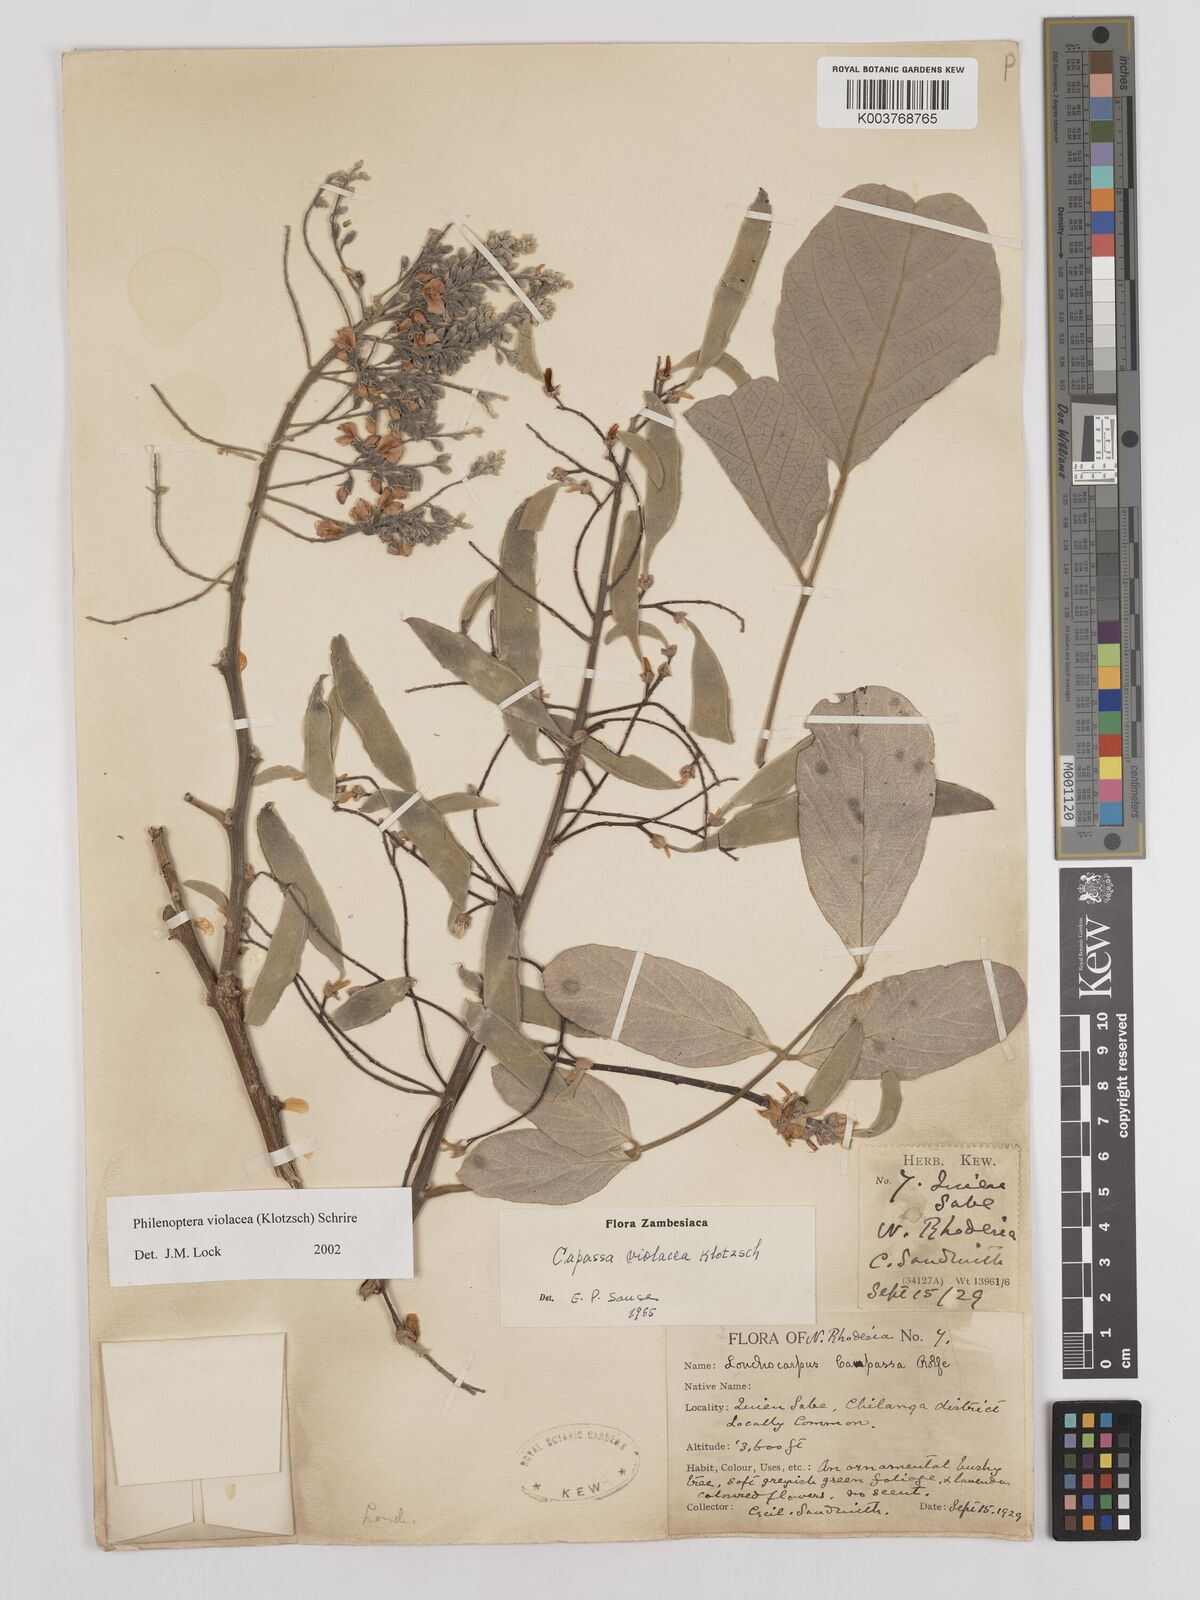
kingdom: Plantae
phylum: Tracheophyta
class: Magnoliopsida
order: Fabales
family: Fabaceae
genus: Philenoptera
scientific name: Philenoptera violacea
